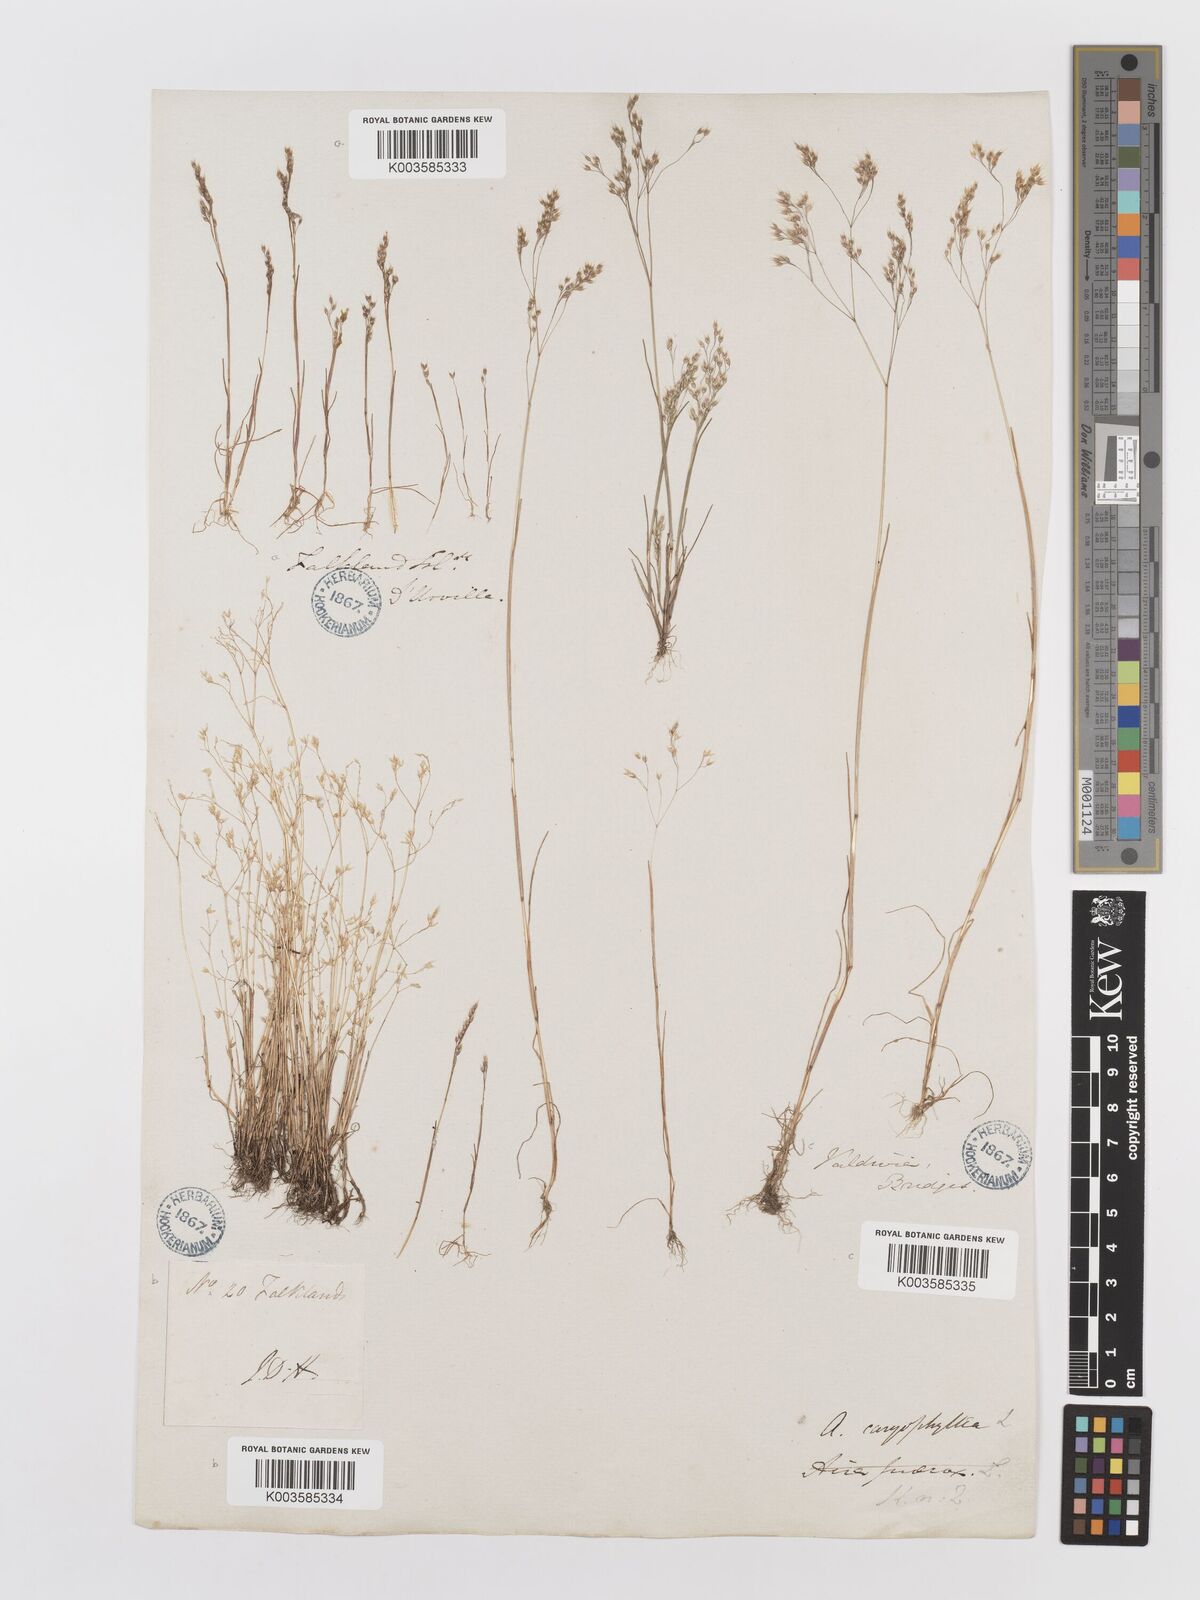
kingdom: Plantae
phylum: Tracheophyta
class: Liliopsida
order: Poales
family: Poaceae
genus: Aira
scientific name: Aira caryophyllea
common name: Silver hairgrass
